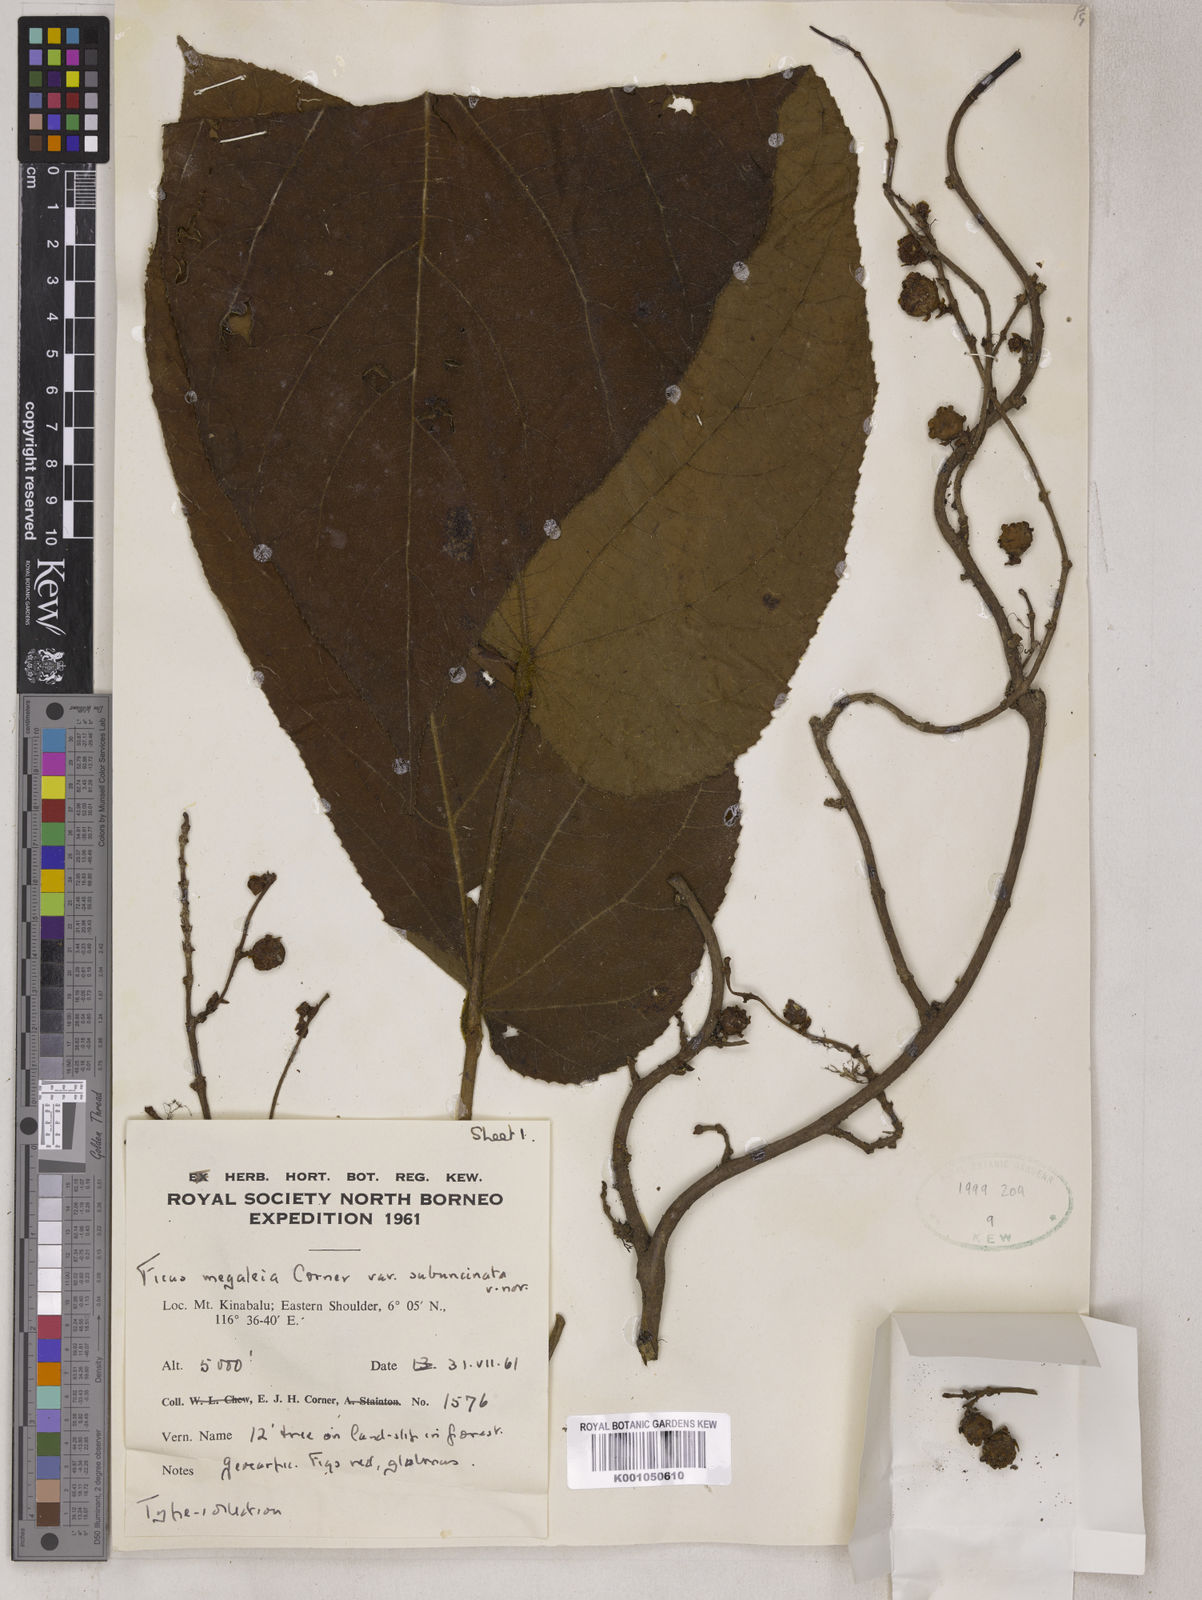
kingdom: Plantae
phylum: Tracheophyta
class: Magnoliopsida
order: Rosales
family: Moraceae
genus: Ficus
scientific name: Ficus megaleia
